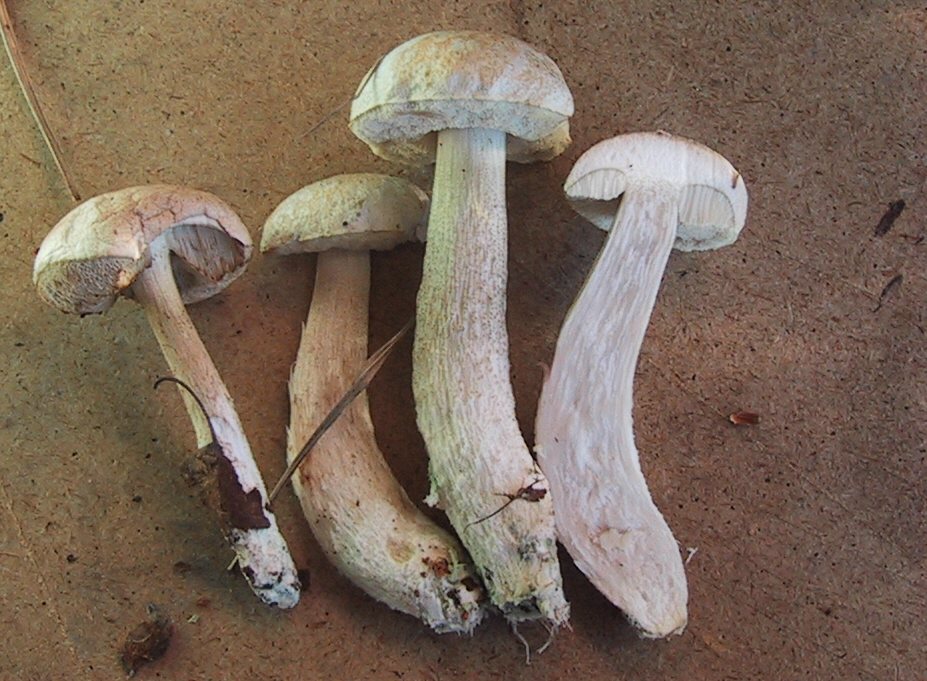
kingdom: Fungi
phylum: Basidiomycota
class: Agaricomycetes
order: Boletales
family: Boletaceae
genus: Leccinum
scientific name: Leccinum scabrum
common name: hvid skælrørhat
